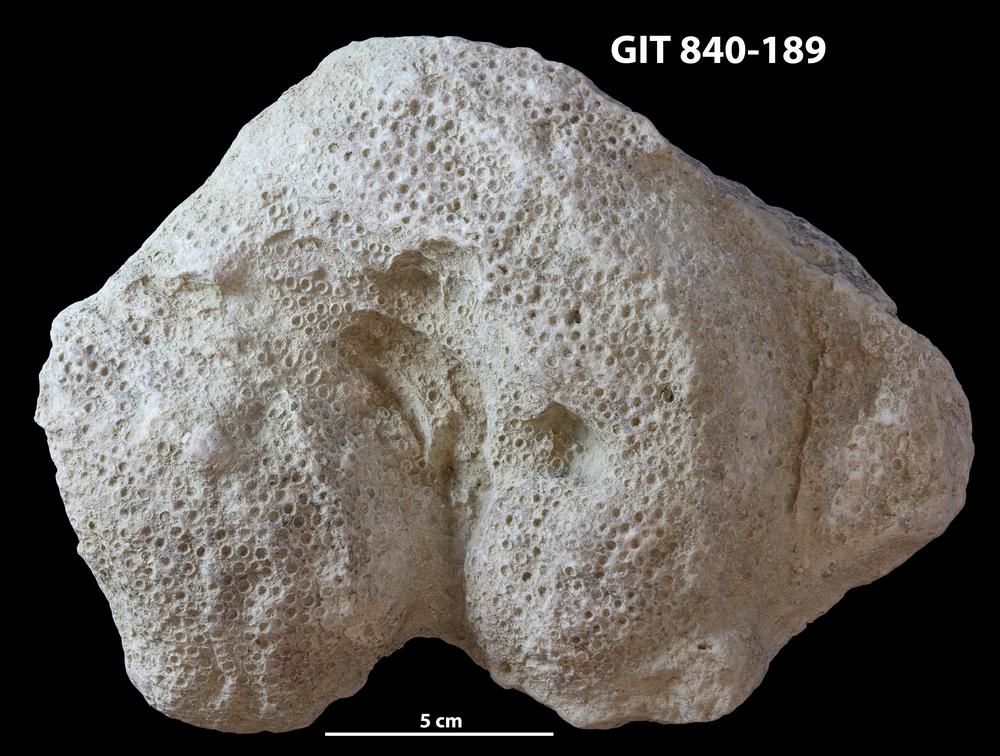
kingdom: Animalia
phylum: Xenacoelomorpha
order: Acoela
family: Proporidae
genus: Propora
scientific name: Propora
